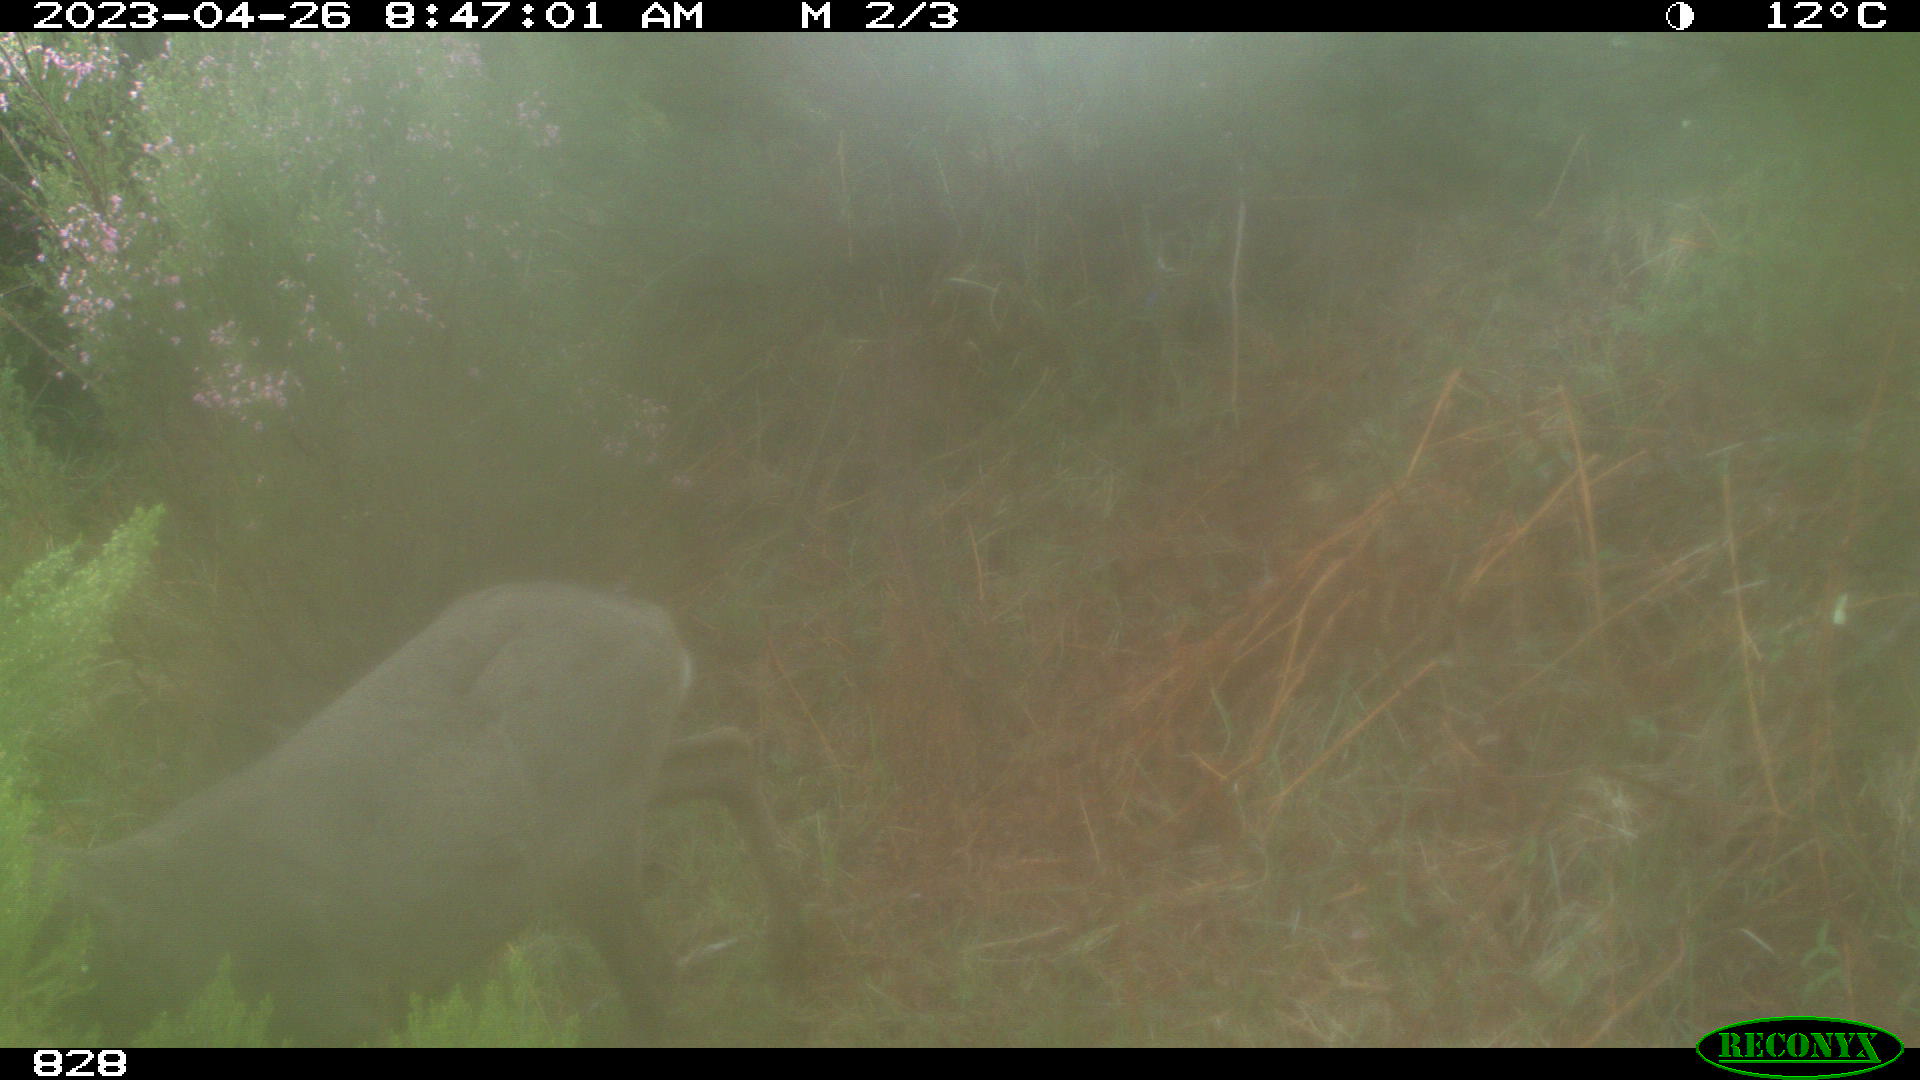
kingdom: Animalia
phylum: Chordata
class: Mammalia
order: Artiodactyla
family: Cervidae
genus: Capreolus
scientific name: Capreolus capreolus
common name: Western roe deer
